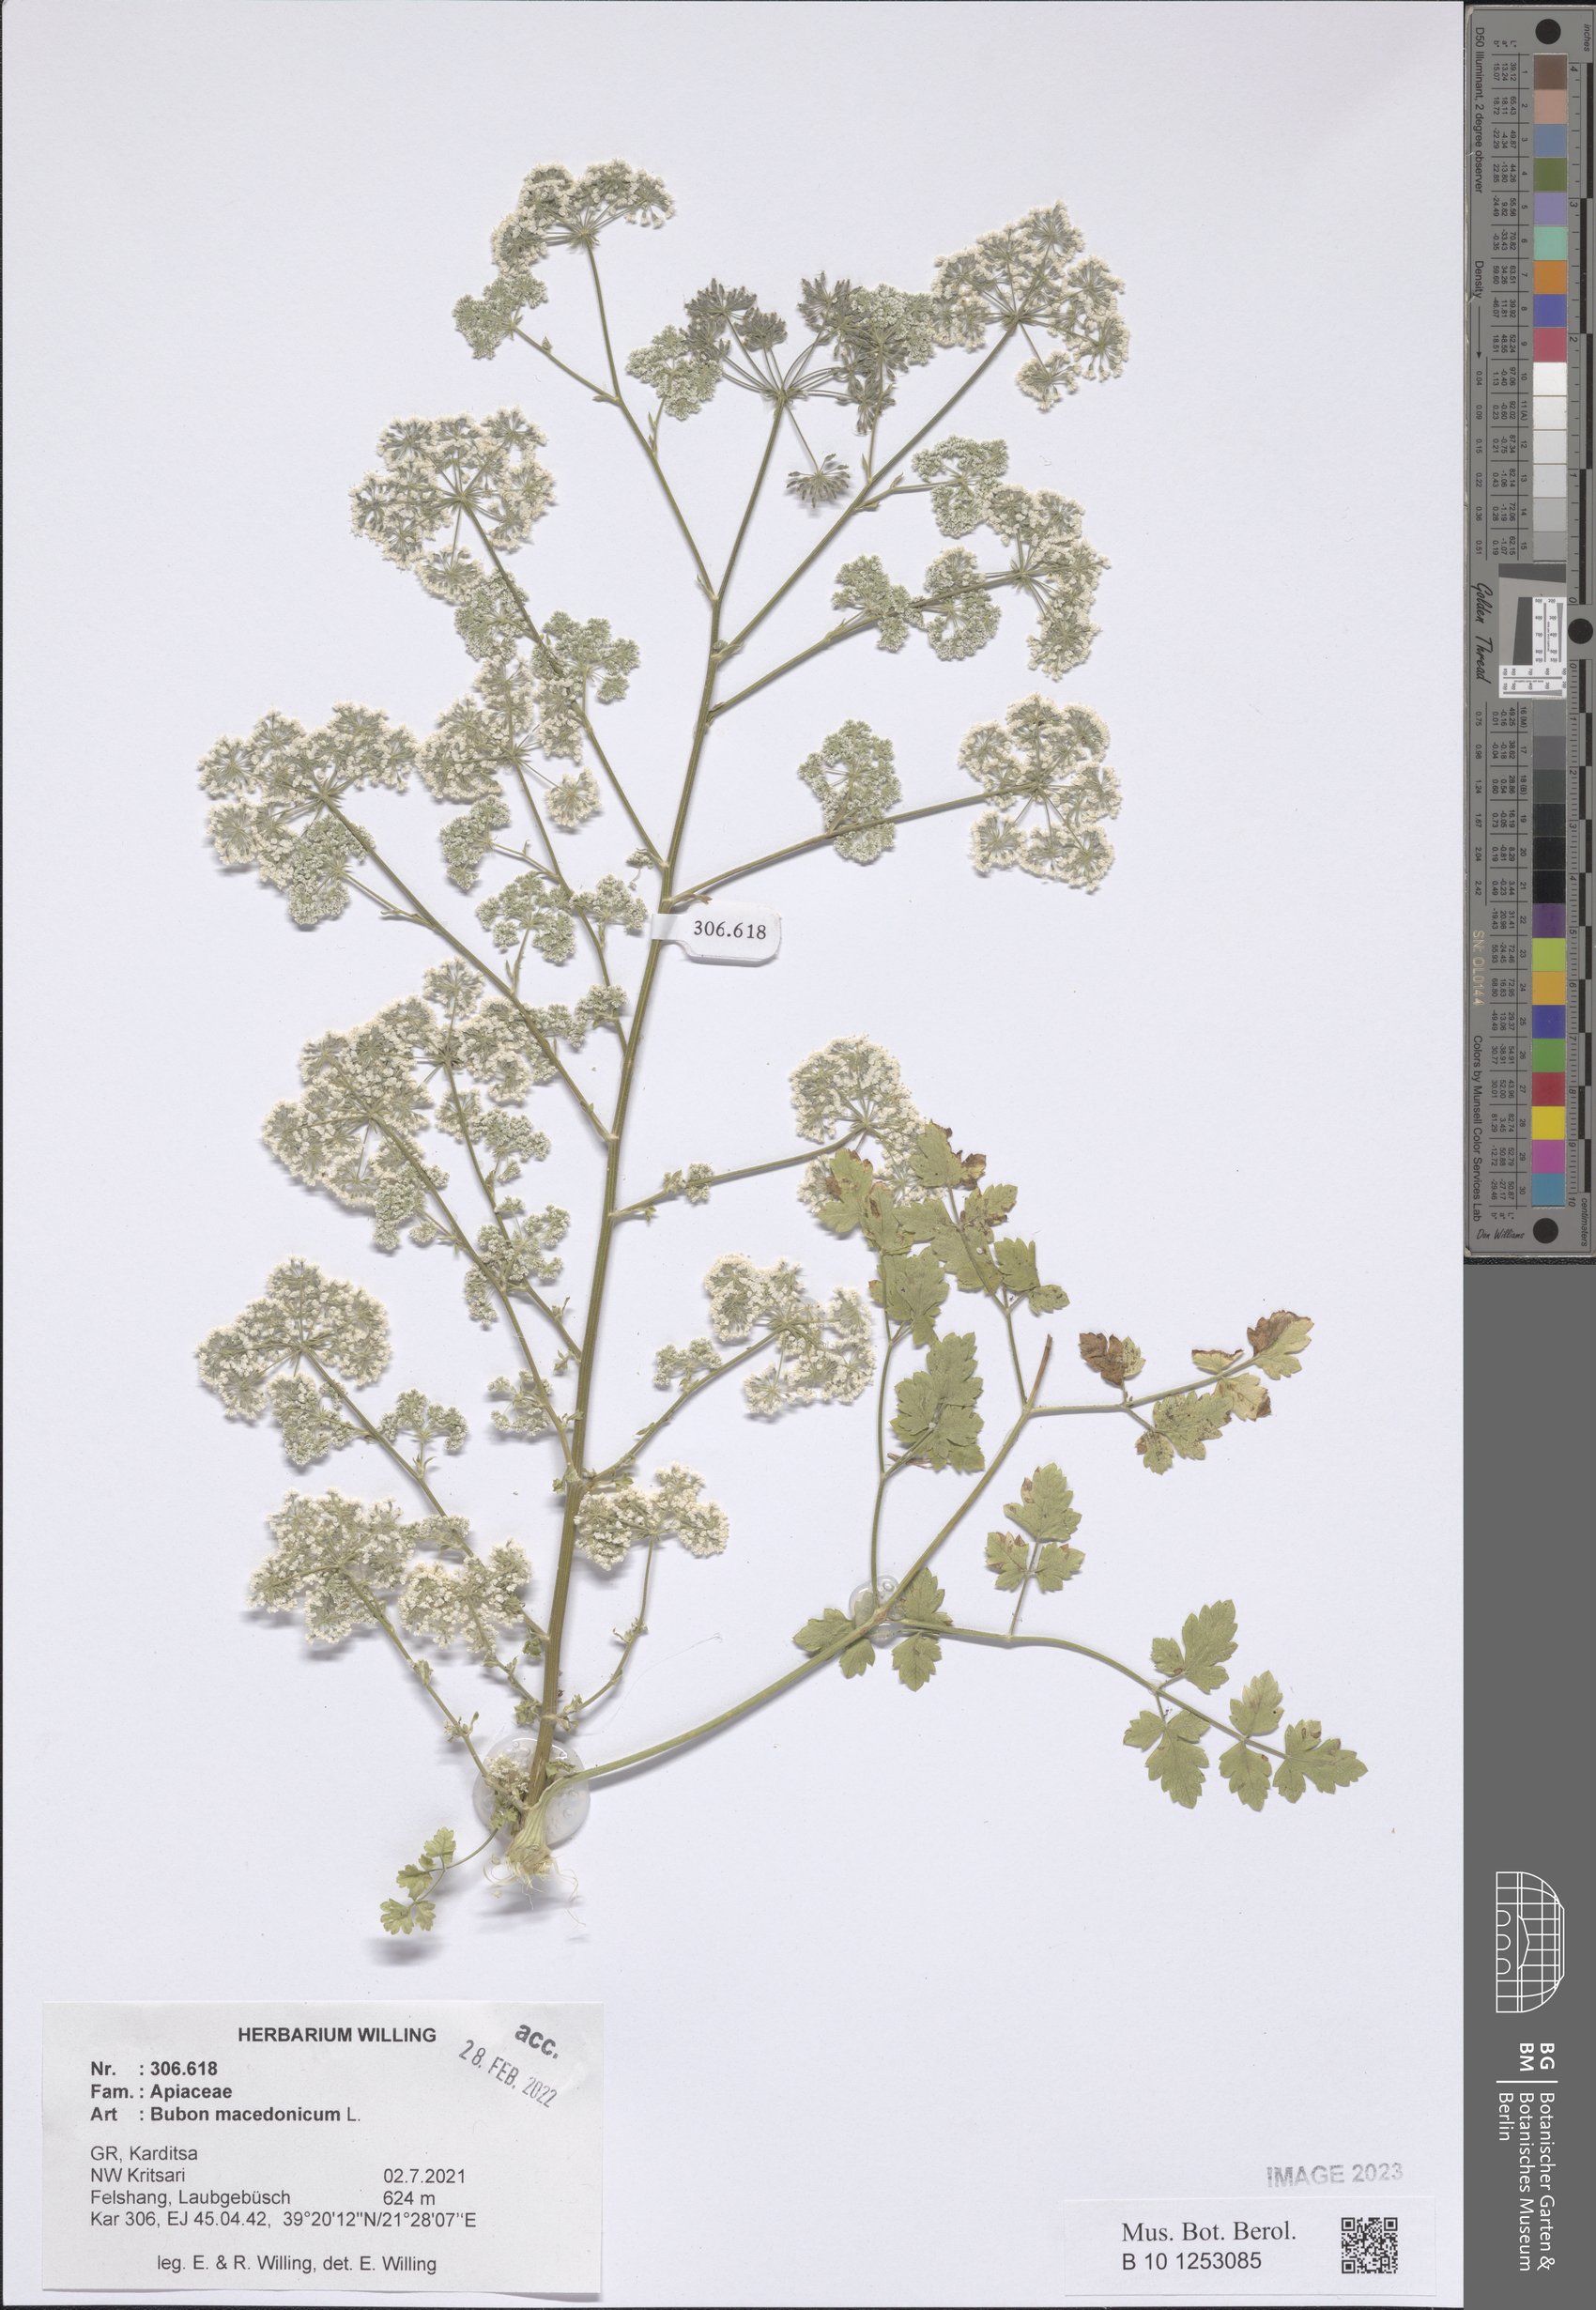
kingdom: Plantae
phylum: Tracheophyta
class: Magnoliopsida
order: Apiales
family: Apiaceae
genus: Bubon
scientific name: Bubon macedonicum
